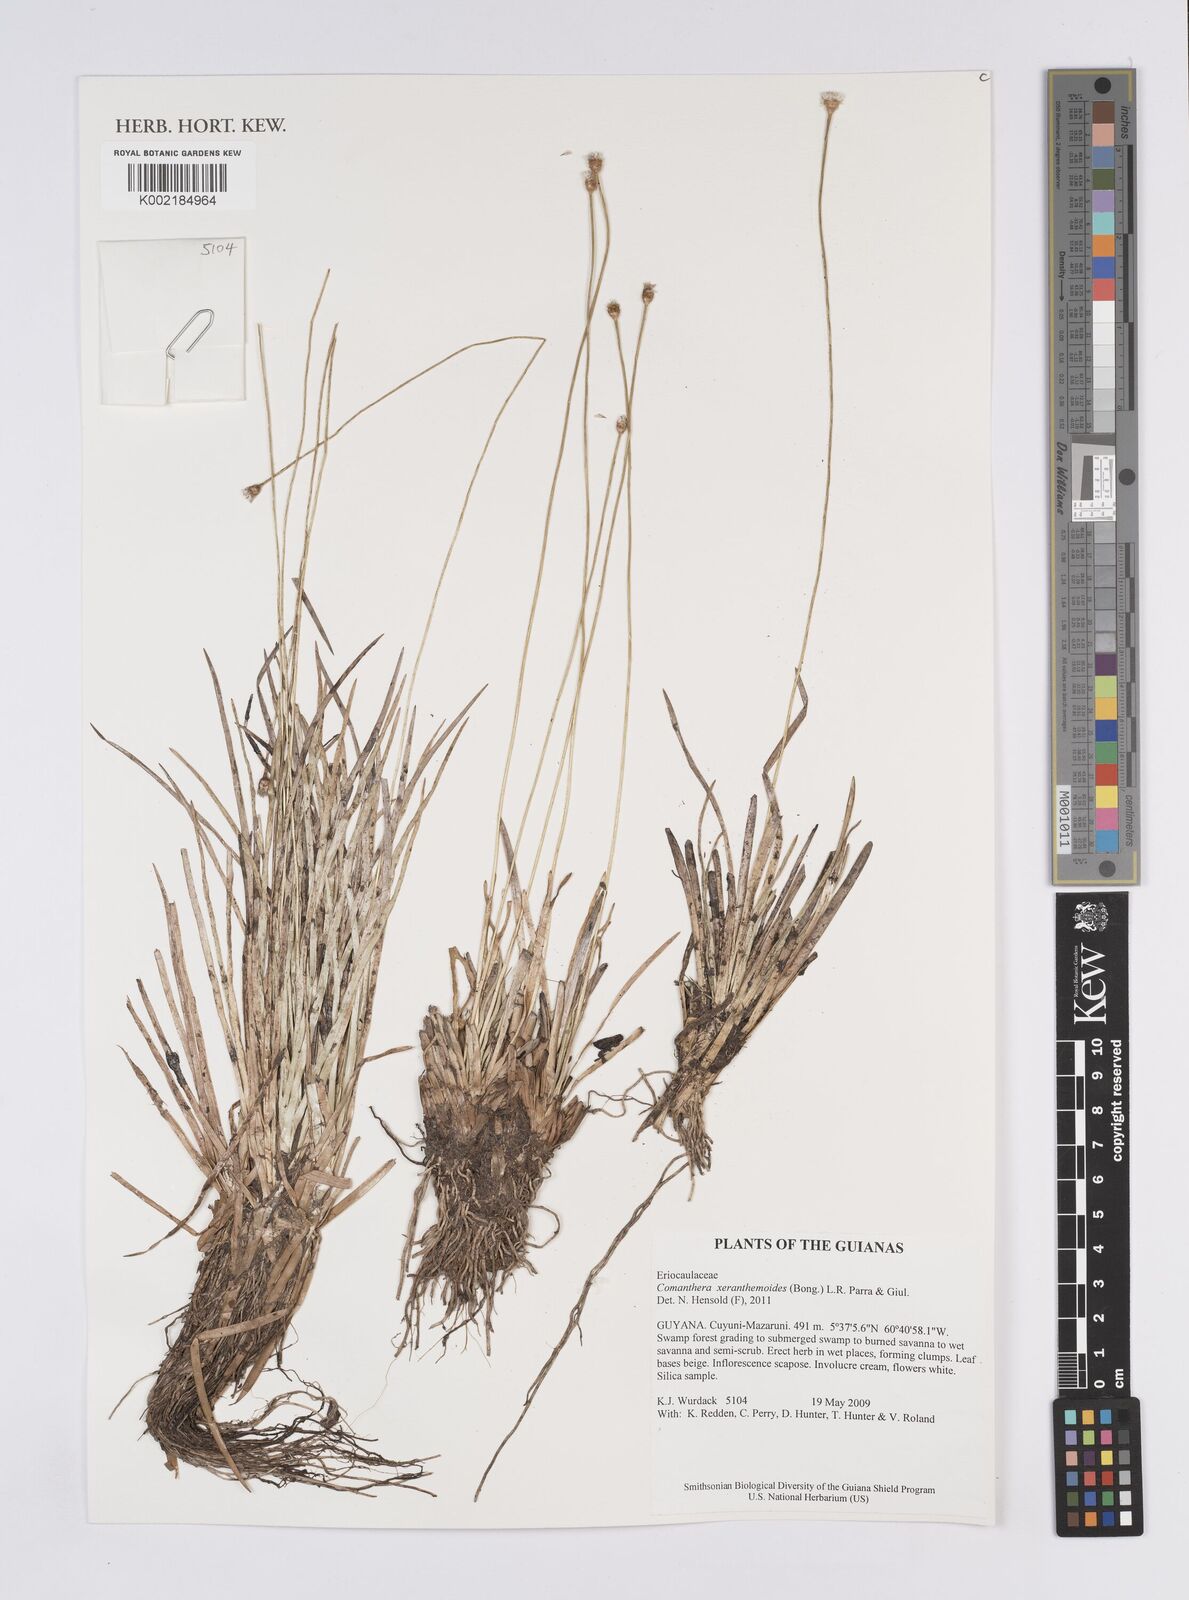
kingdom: Plantae
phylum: Tracheophyta
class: Liliopsida
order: Poales
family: Eriocaulaceae
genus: Comanthera
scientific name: Comanthera xeranthemoides
